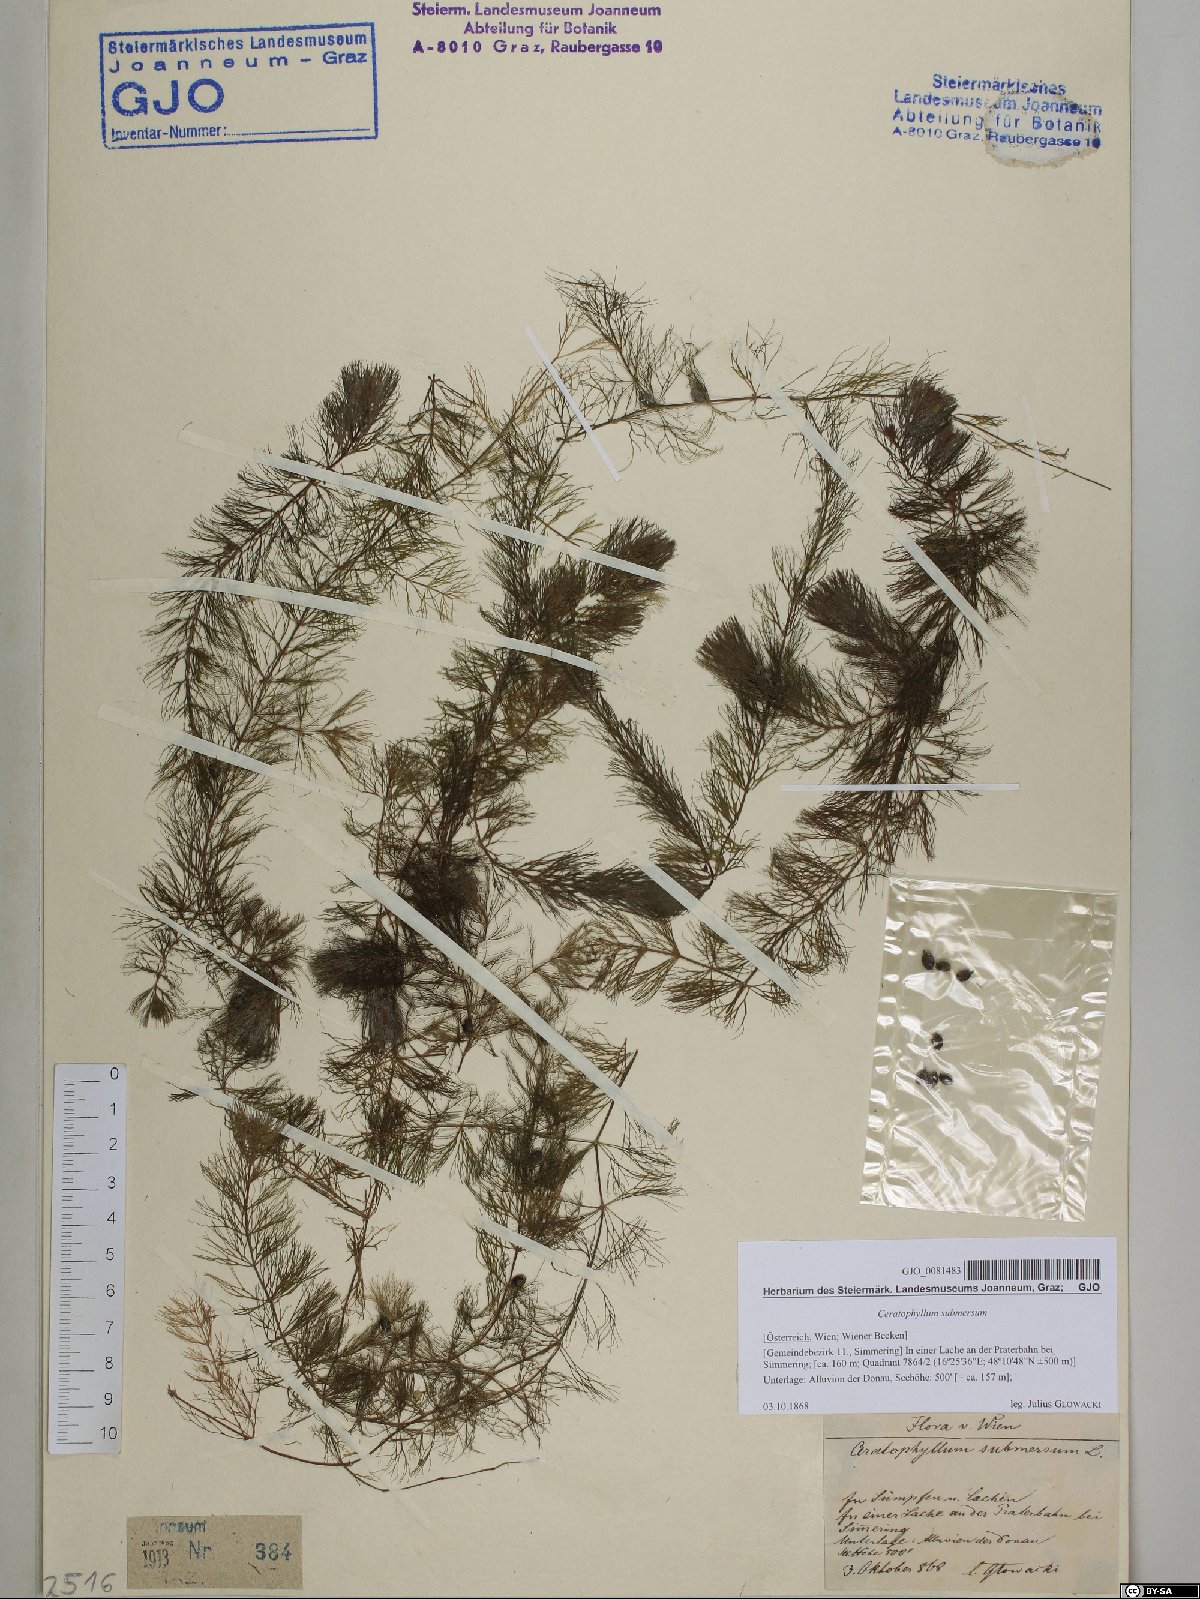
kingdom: Plantae
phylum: Tracheophyta
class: Magnoliopsida
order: Ceratophyllales
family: Ceratophyllaceae
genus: Ceratophyllum
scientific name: Ceratophyllum submersum
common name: Soft hornwort
